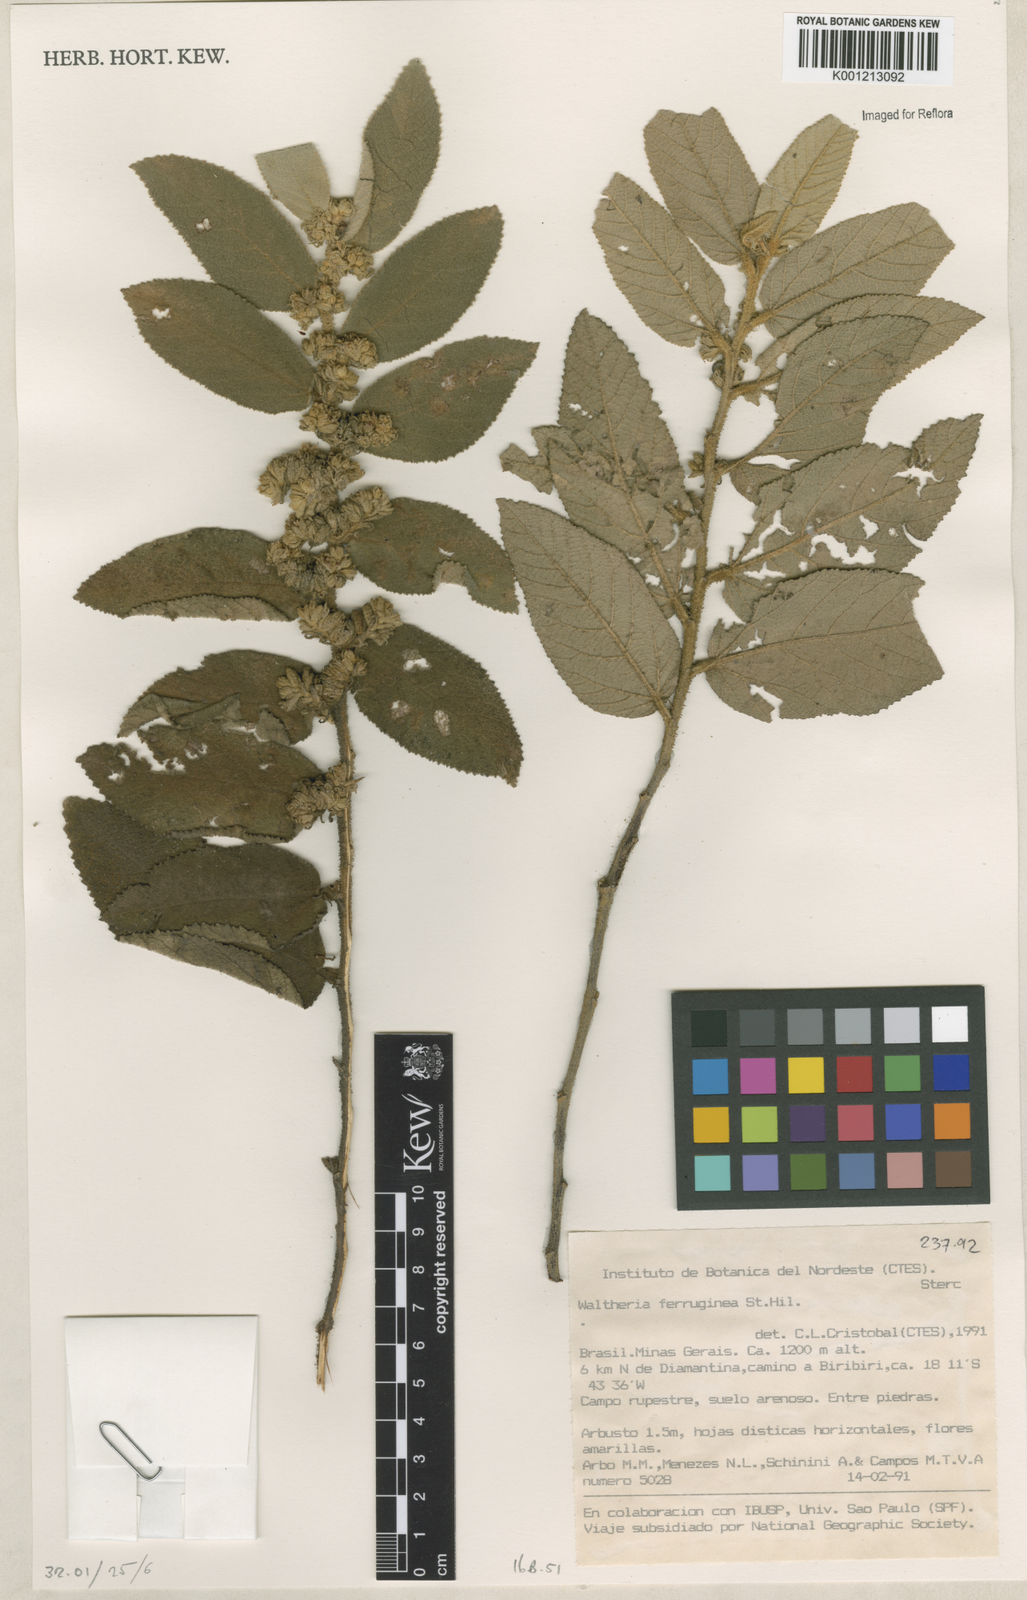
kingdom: Plantae
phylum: Tracheophyta
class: Magnoliopsida
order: Malvales
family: Malvaceae
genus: Waltheria
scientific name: Waltheria ferruginea
